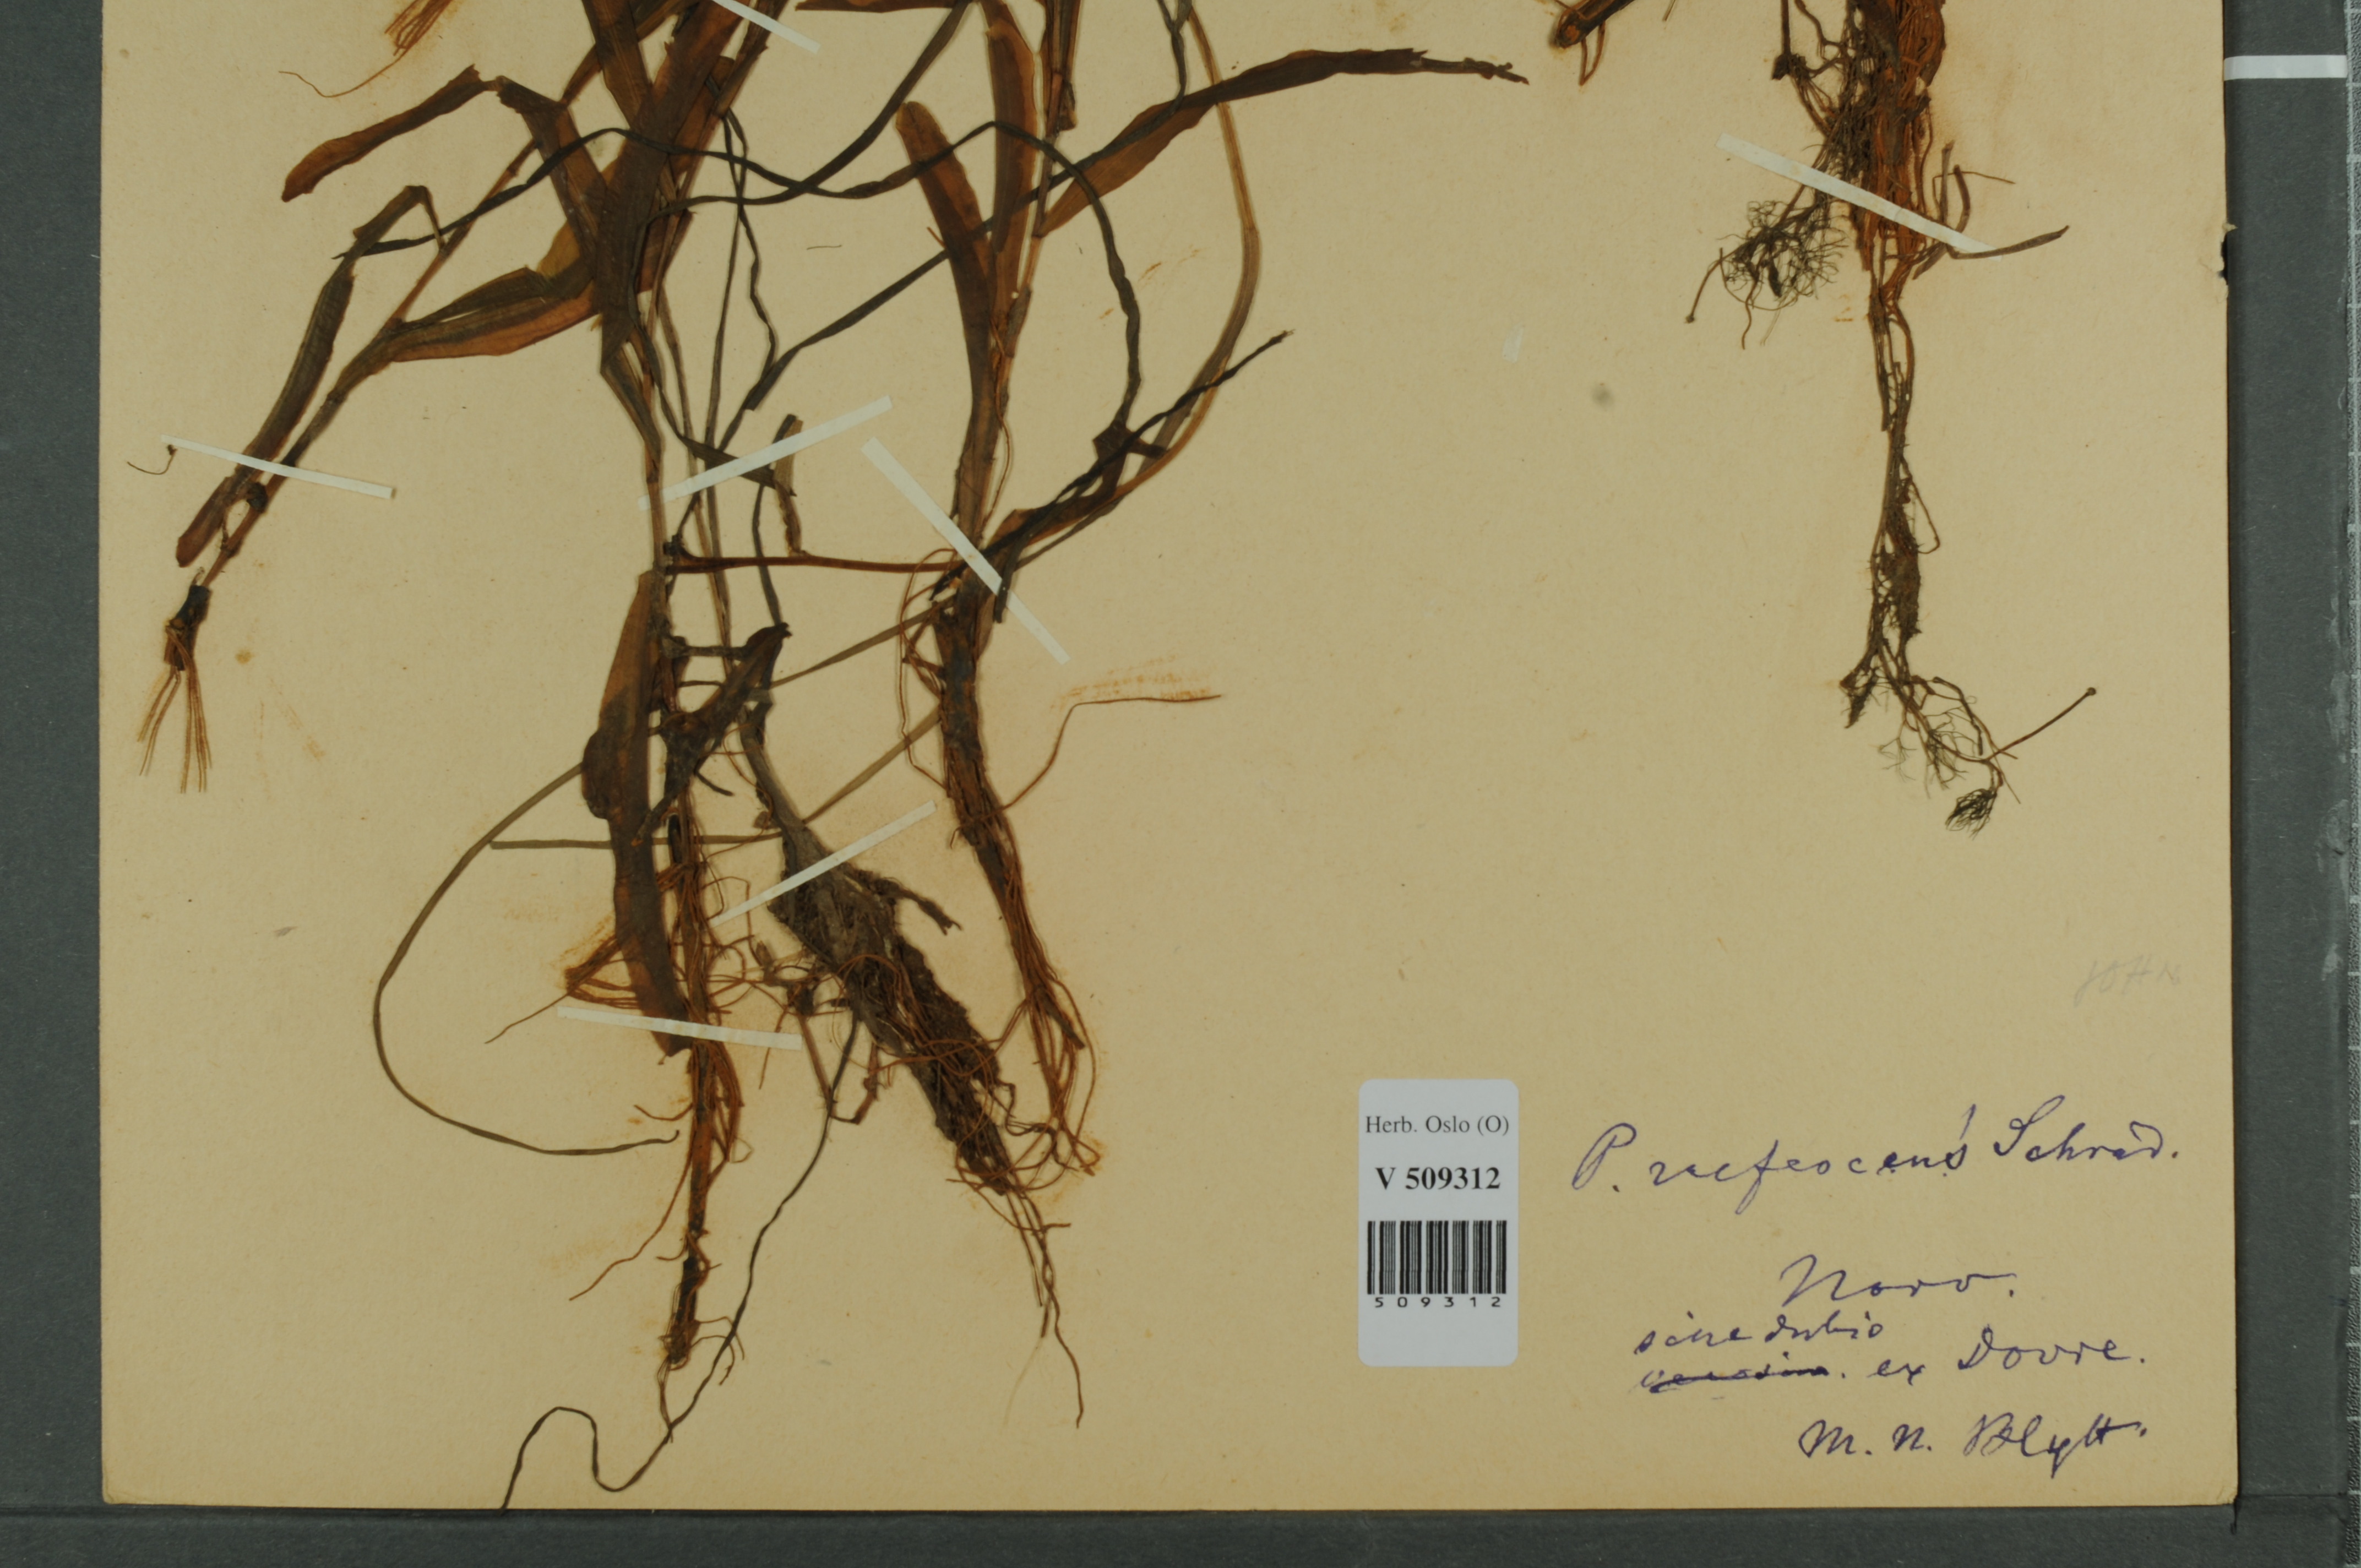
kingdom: Plantae
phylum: Tracheophyta
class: Liliopsida
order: Alismatales
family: Potamogetonaceae
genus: Potamogeton
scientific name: Potamogeton alpinus
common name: Red pondweed
